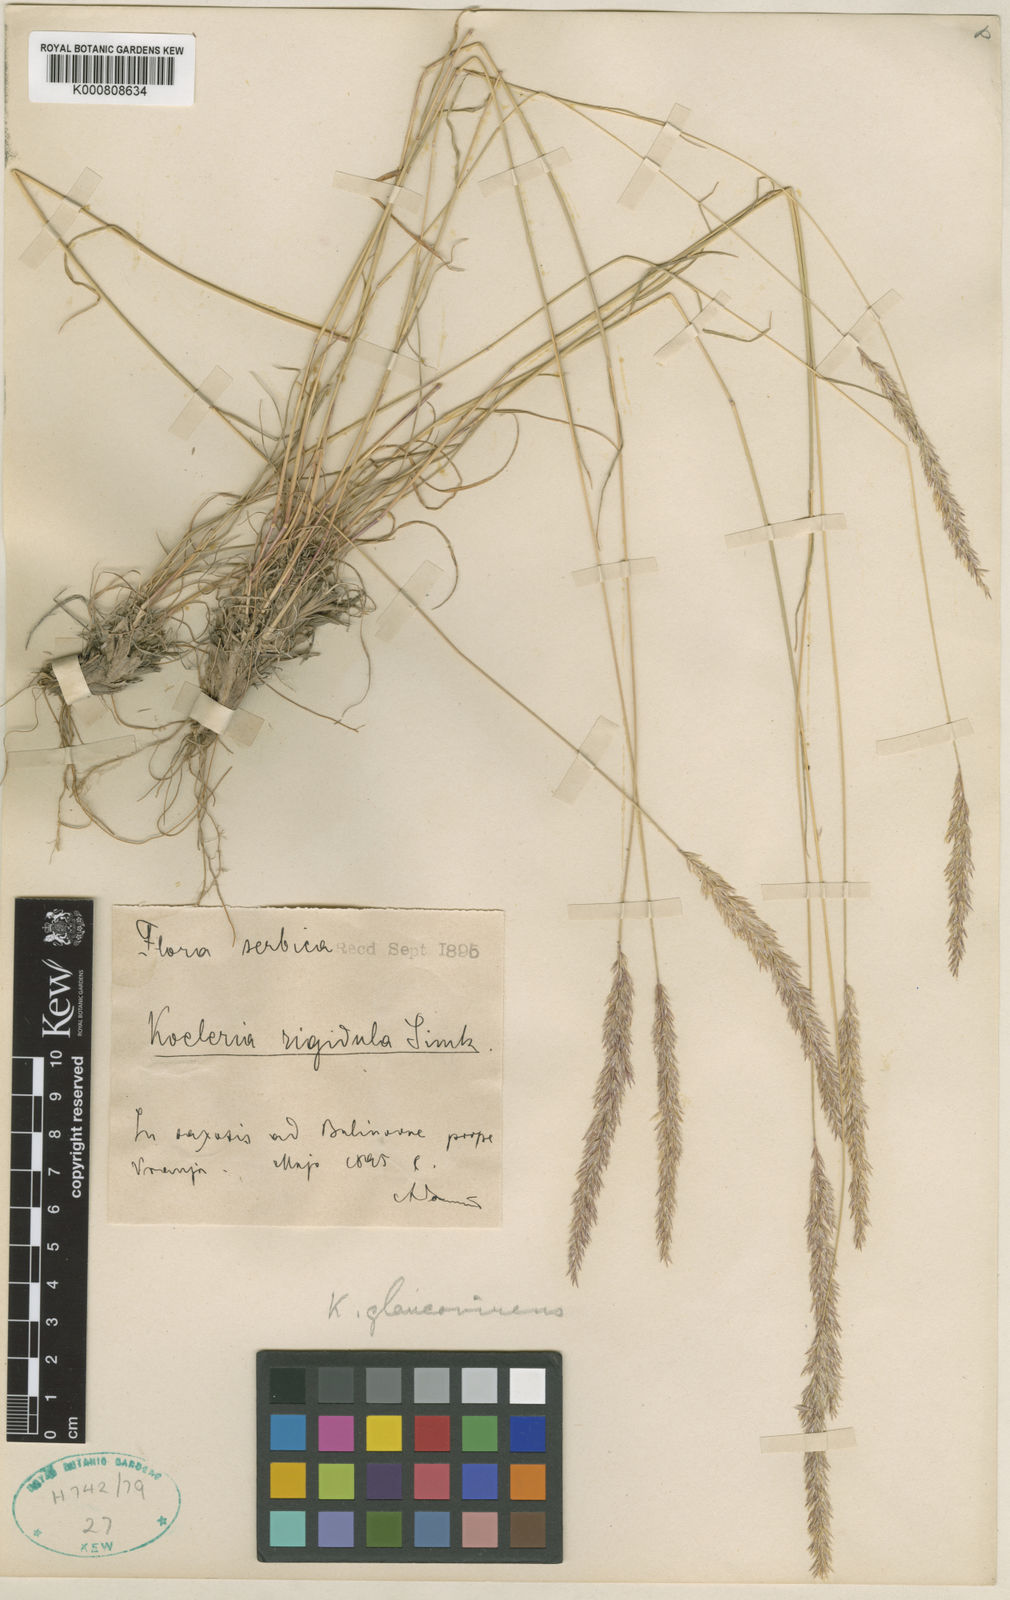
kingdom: Plantae
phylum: Tracheophyta
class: Liliopsida
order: Poales
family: Poaceae
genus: Koeleria
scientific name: Koeleria macrantha
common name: Crested hair-grass
